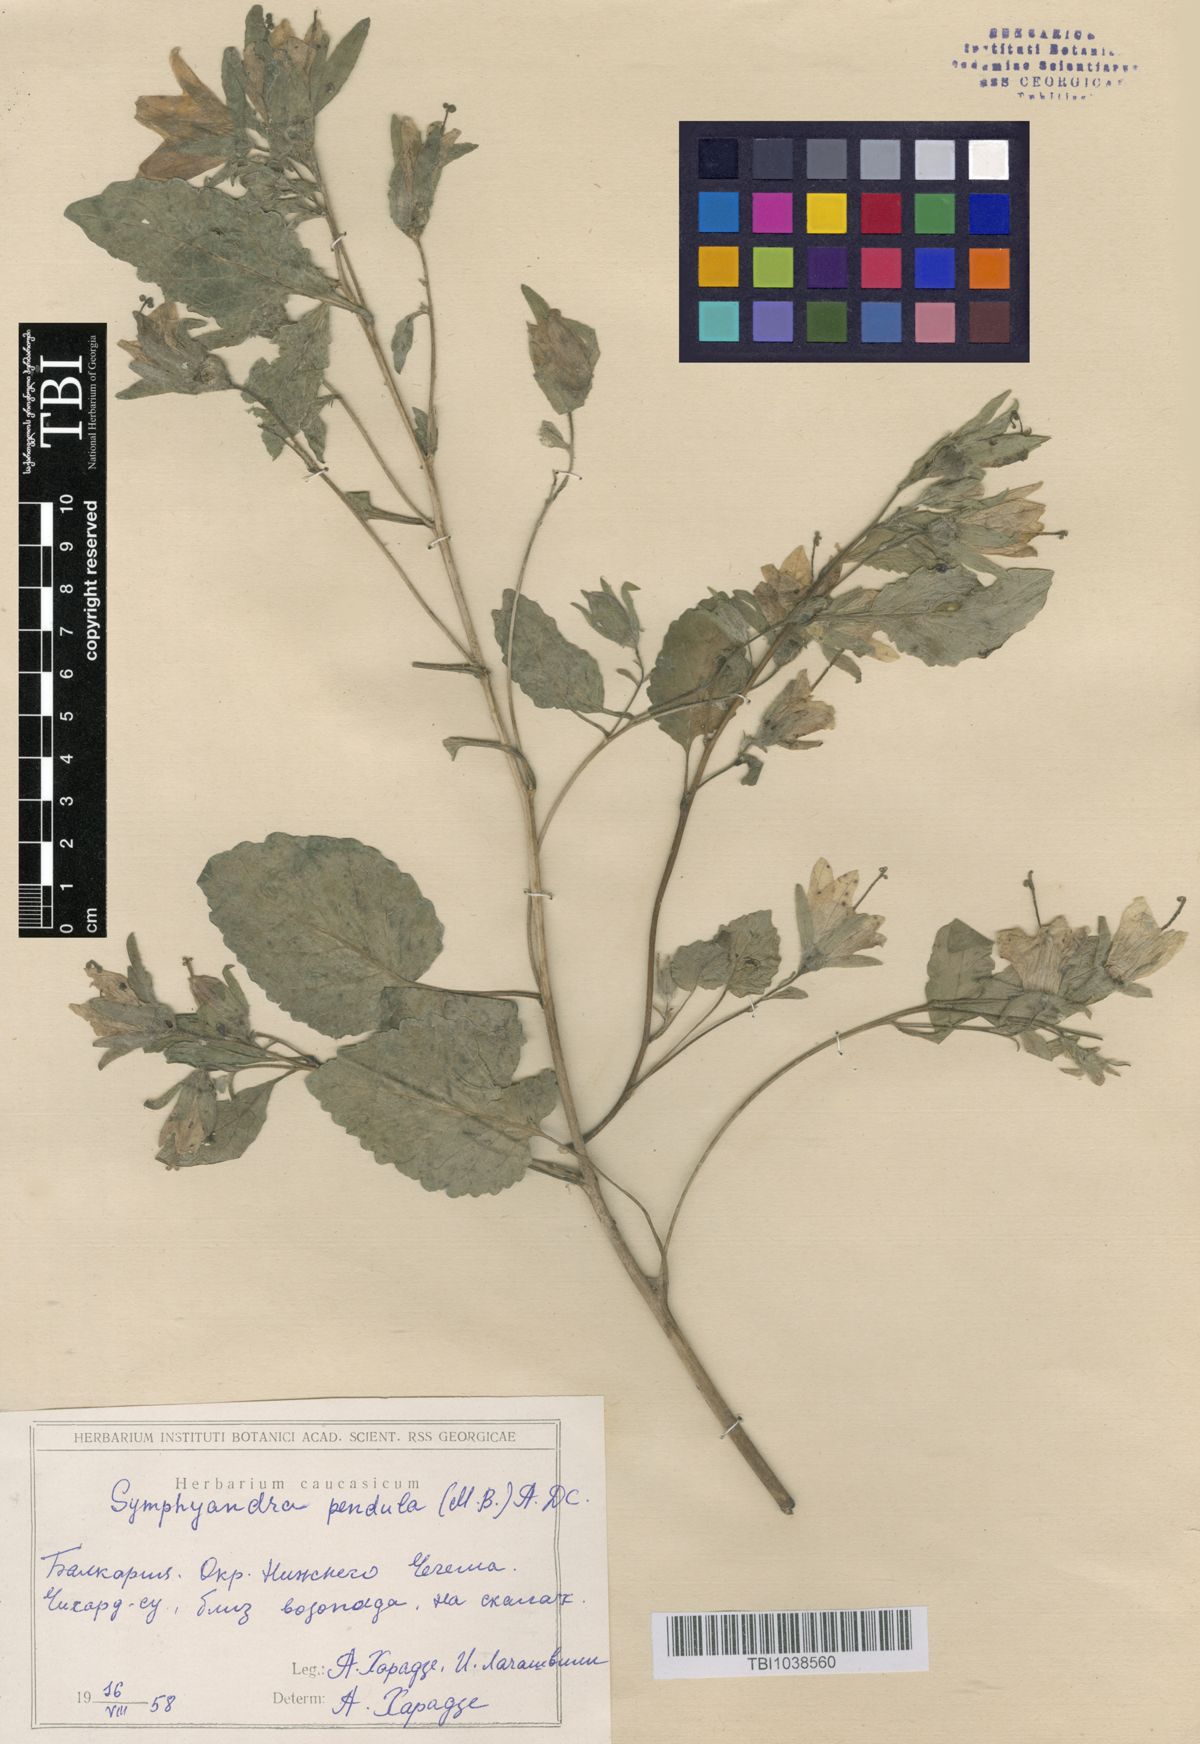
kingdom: Plantae
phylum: Tracheophyta
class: Magnoliopsida
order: Asterales
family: Campanulaceae
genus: Campanula
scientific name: Campanula pendula
